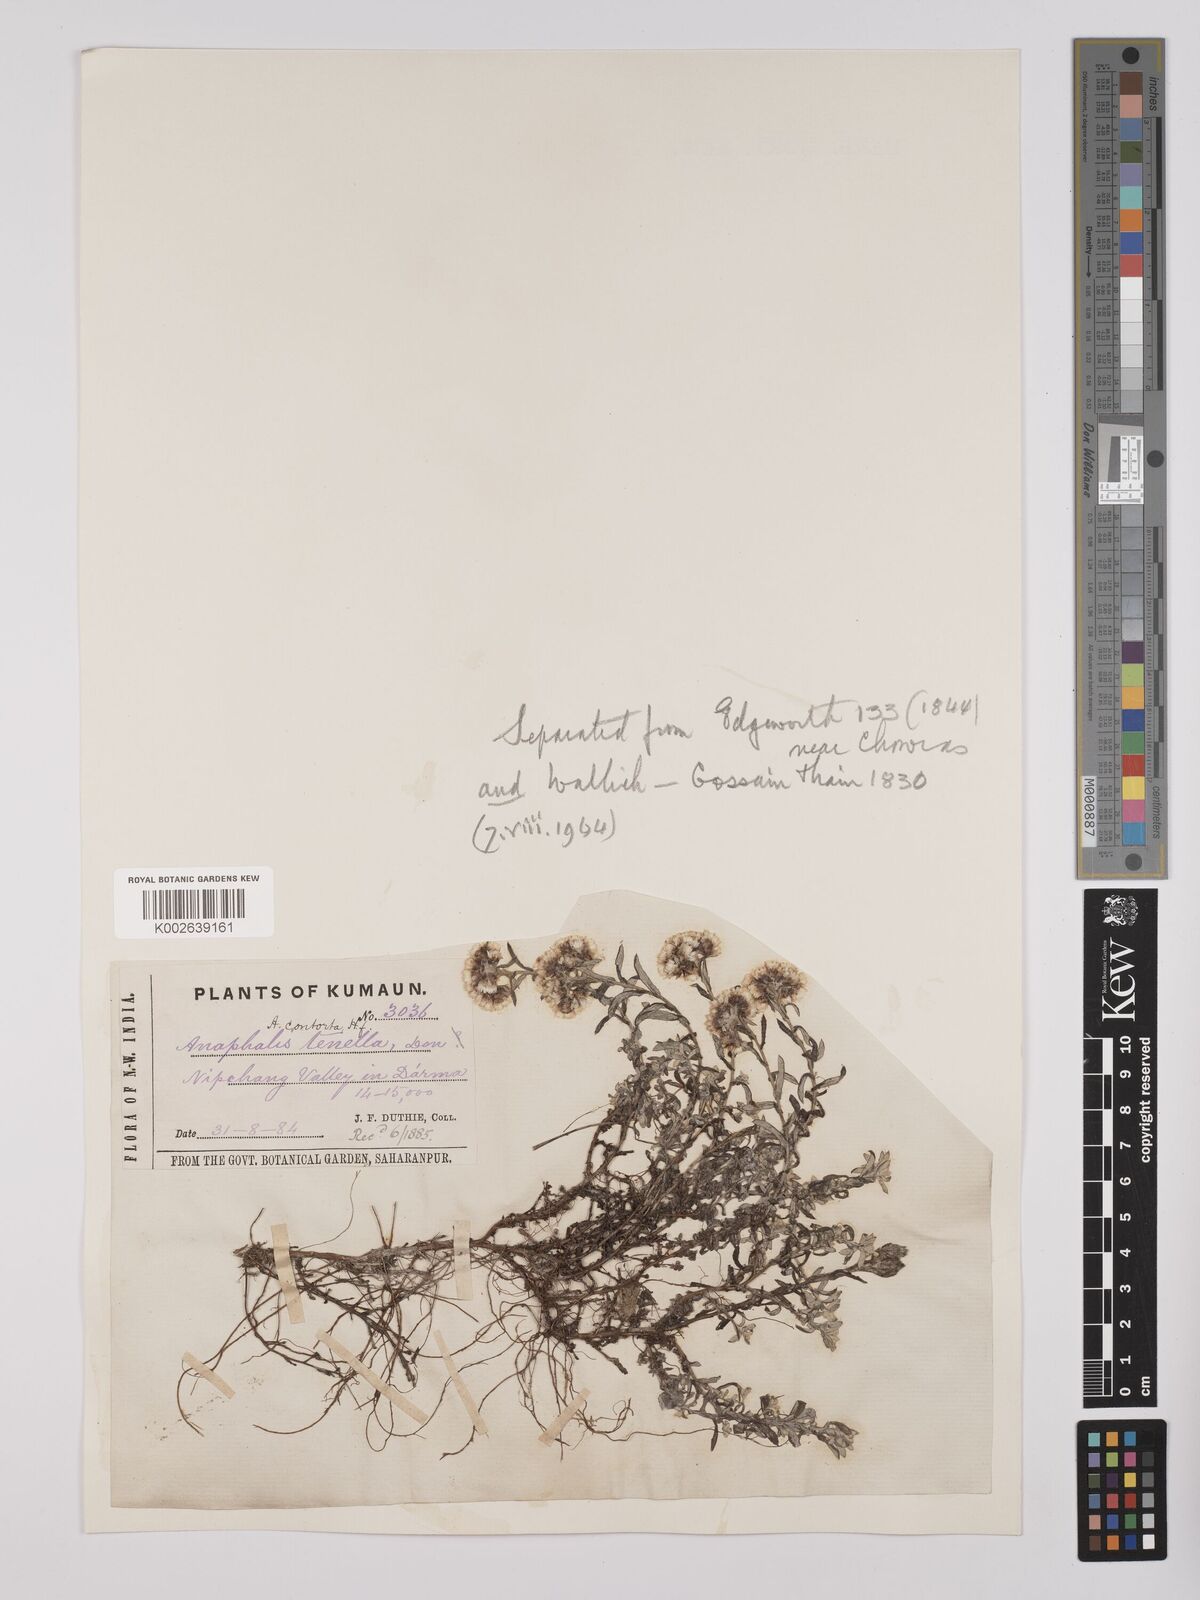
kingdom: Plantae
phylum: Tracheophyta
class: Magnoliopsida
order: Asterales
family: Asteraceae
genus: Anaphalis
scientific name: Anaphalis contorta
